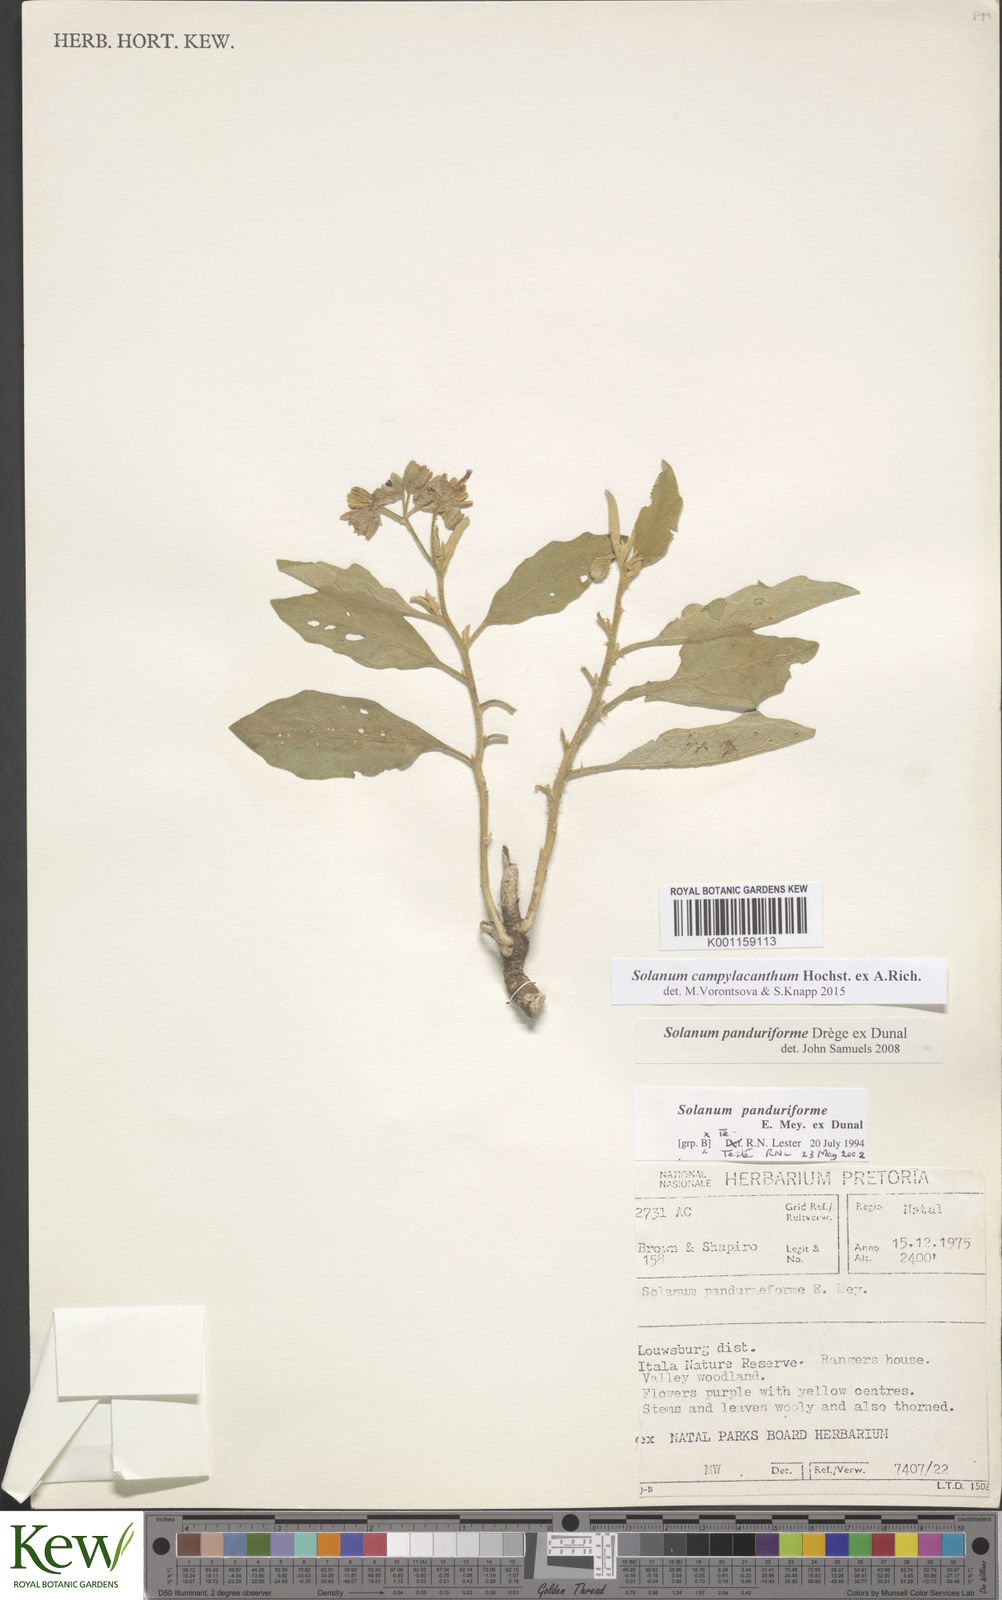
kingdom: Plantae
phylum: Tracheophyta
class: Magnoliopsida
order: Solanales
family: Solanaceae
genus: Solanum
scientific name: Solanum campylacanthum
